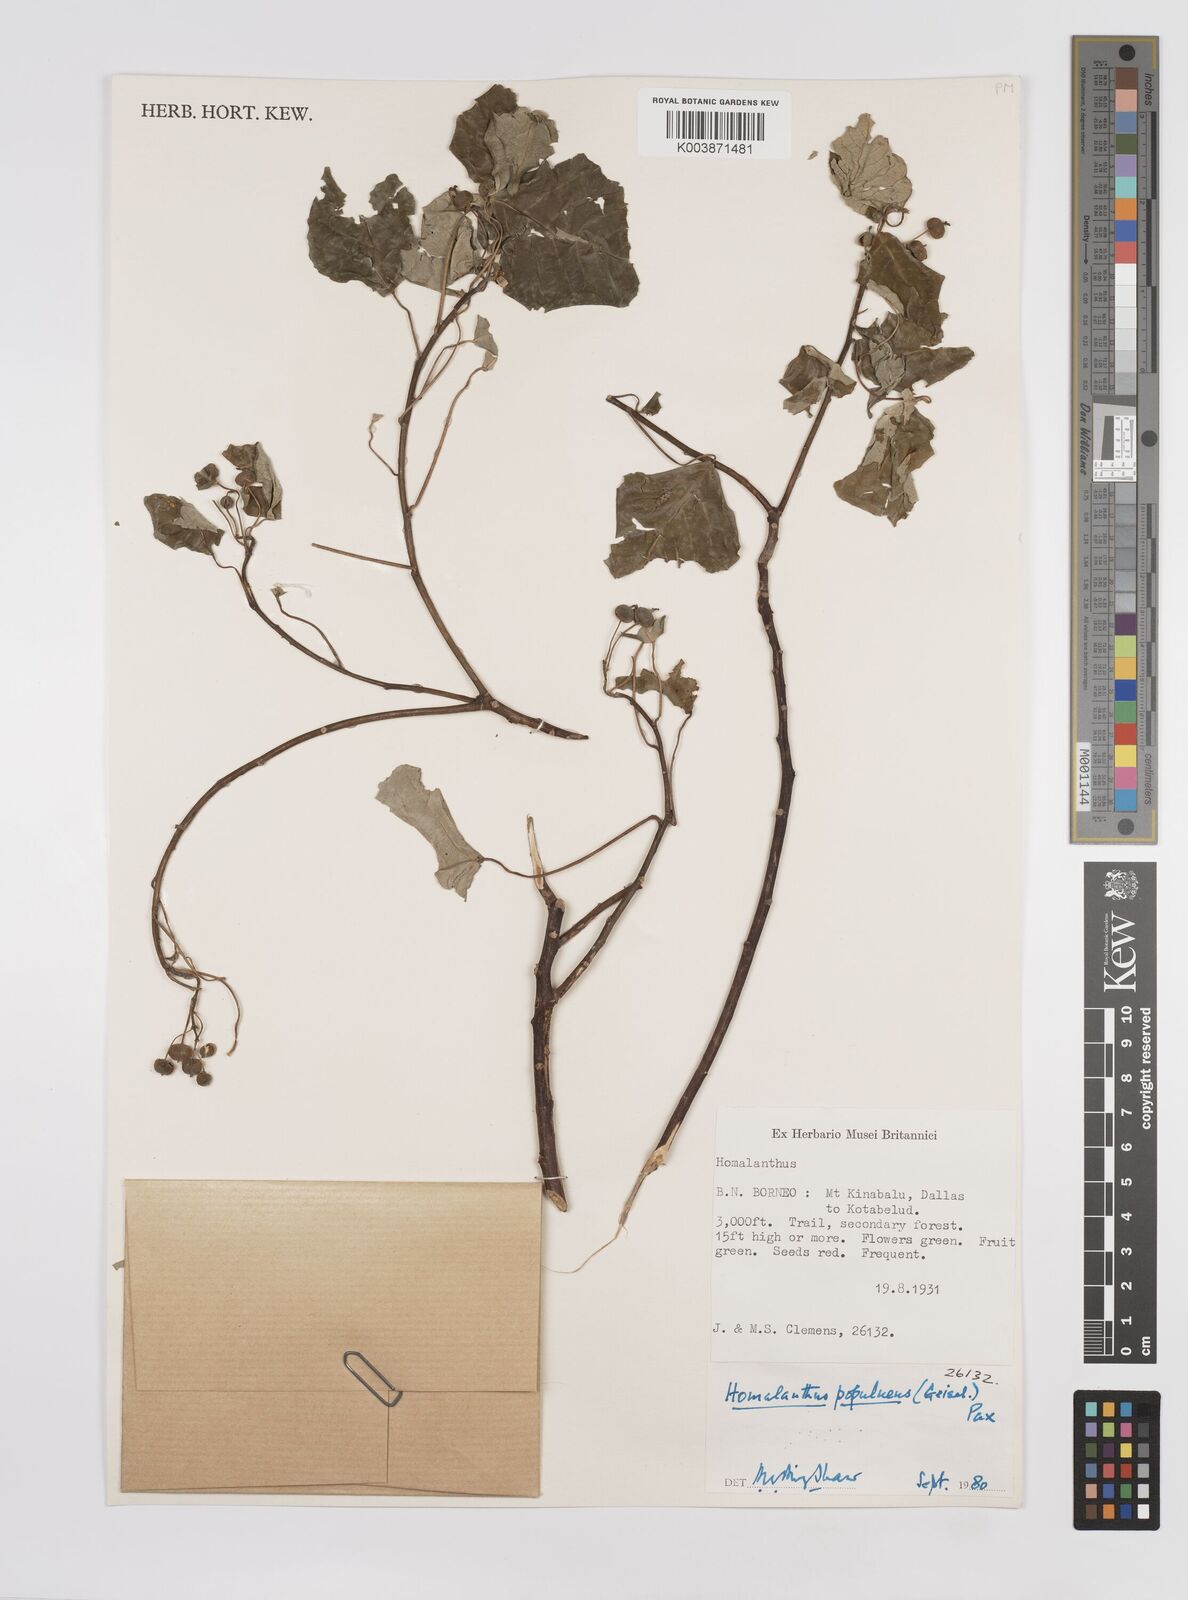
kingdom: Plantae
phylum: Tracheophyta
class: Magnoliopsida
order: Malpighiales
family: Euphorbiaceae
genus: Homalanthus
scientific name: Homalanthus populneus
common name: Spurge
